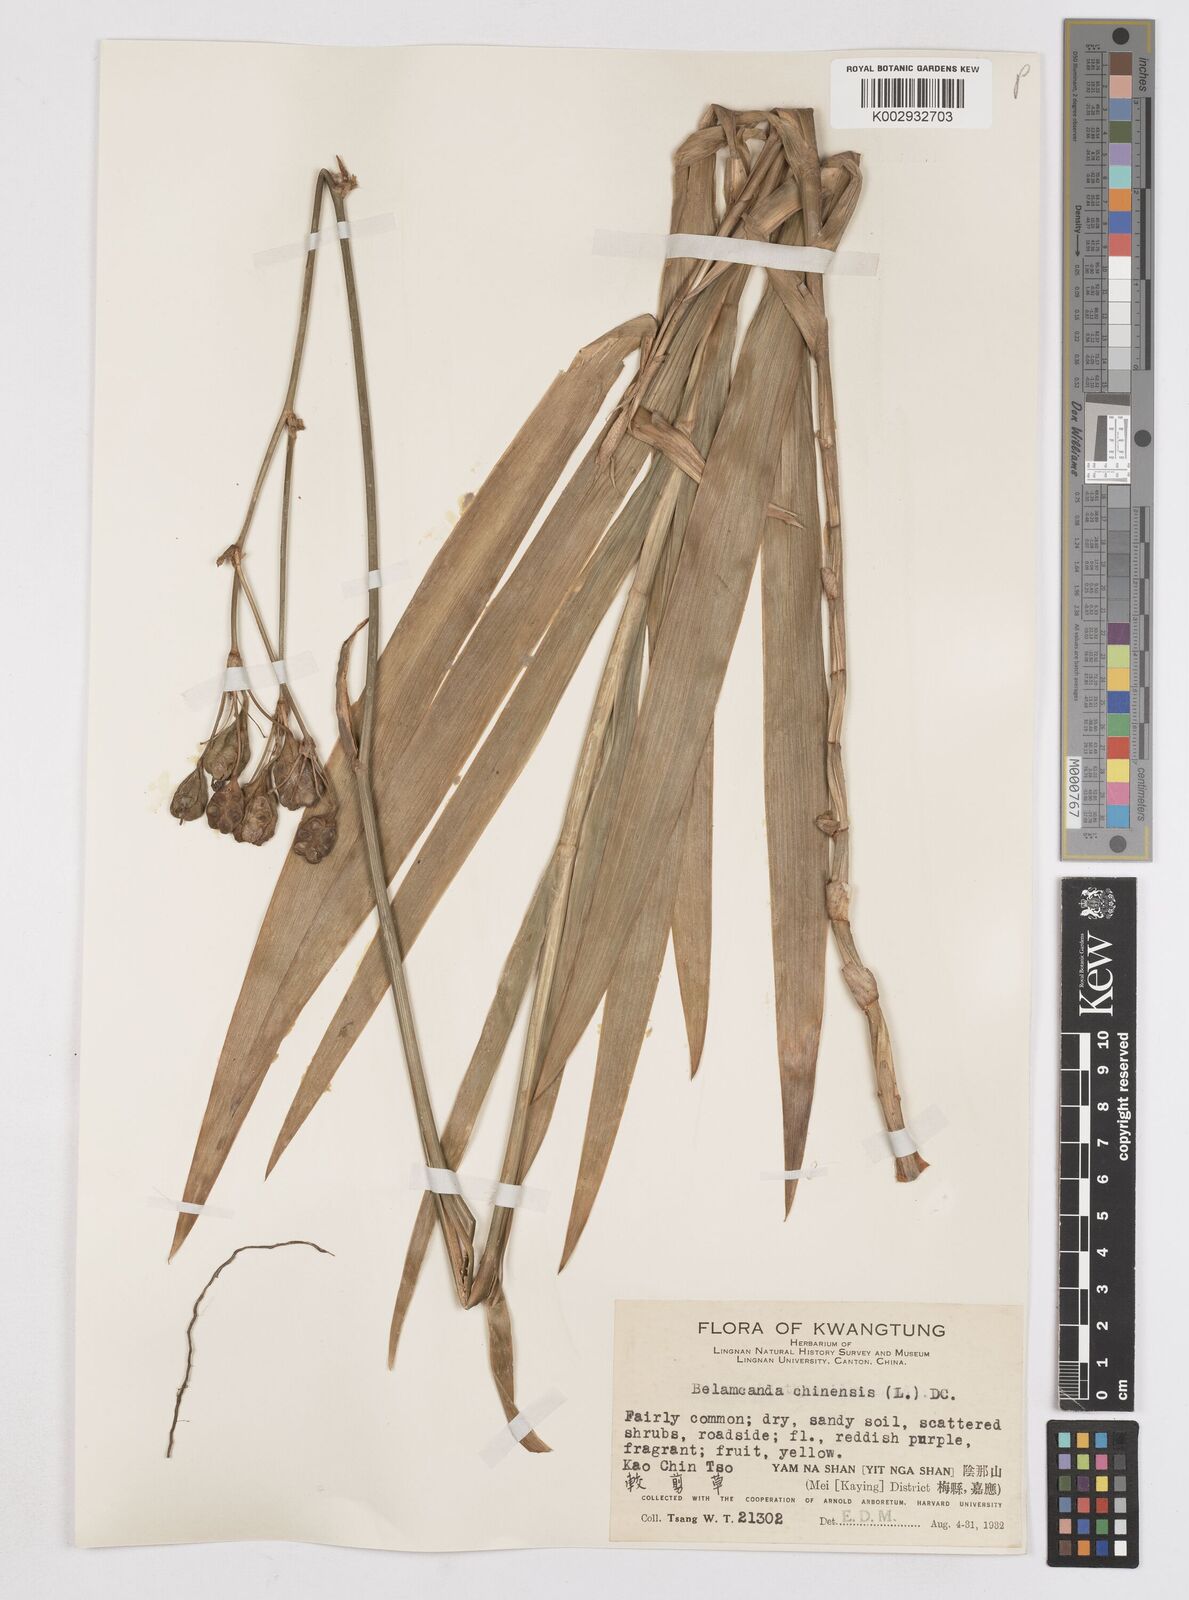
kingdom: Plantae
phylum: Tracheophyta
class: Liliopsida
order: Asparagales
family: Iridaceae
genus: Iris
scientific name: Iris
